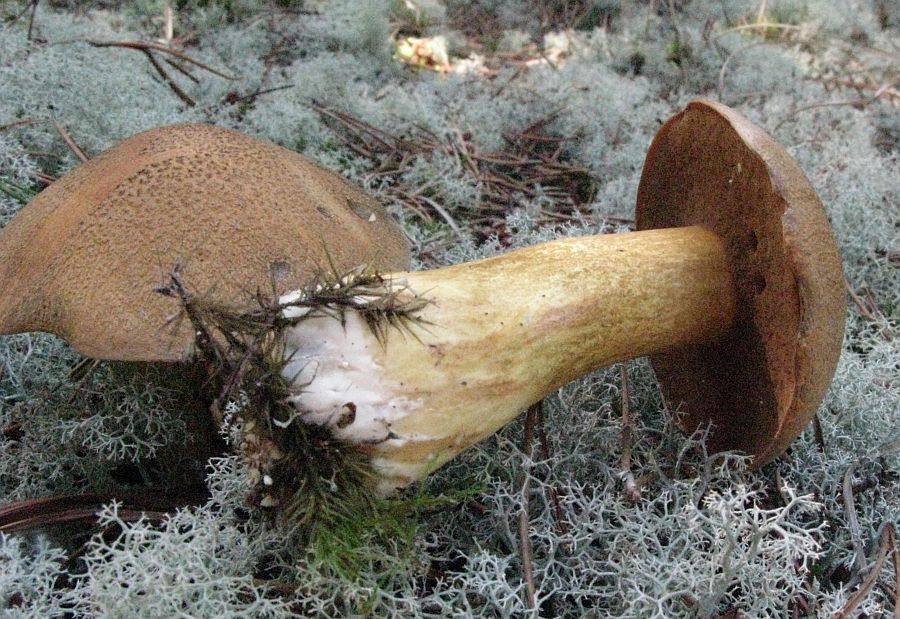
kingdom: Fungi
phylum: Basidiomycota
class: Agaricomycetes
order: Boletales
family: Suillaceae
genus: Suillus
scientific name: Suillus variegatus
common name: broget slimrørhat
